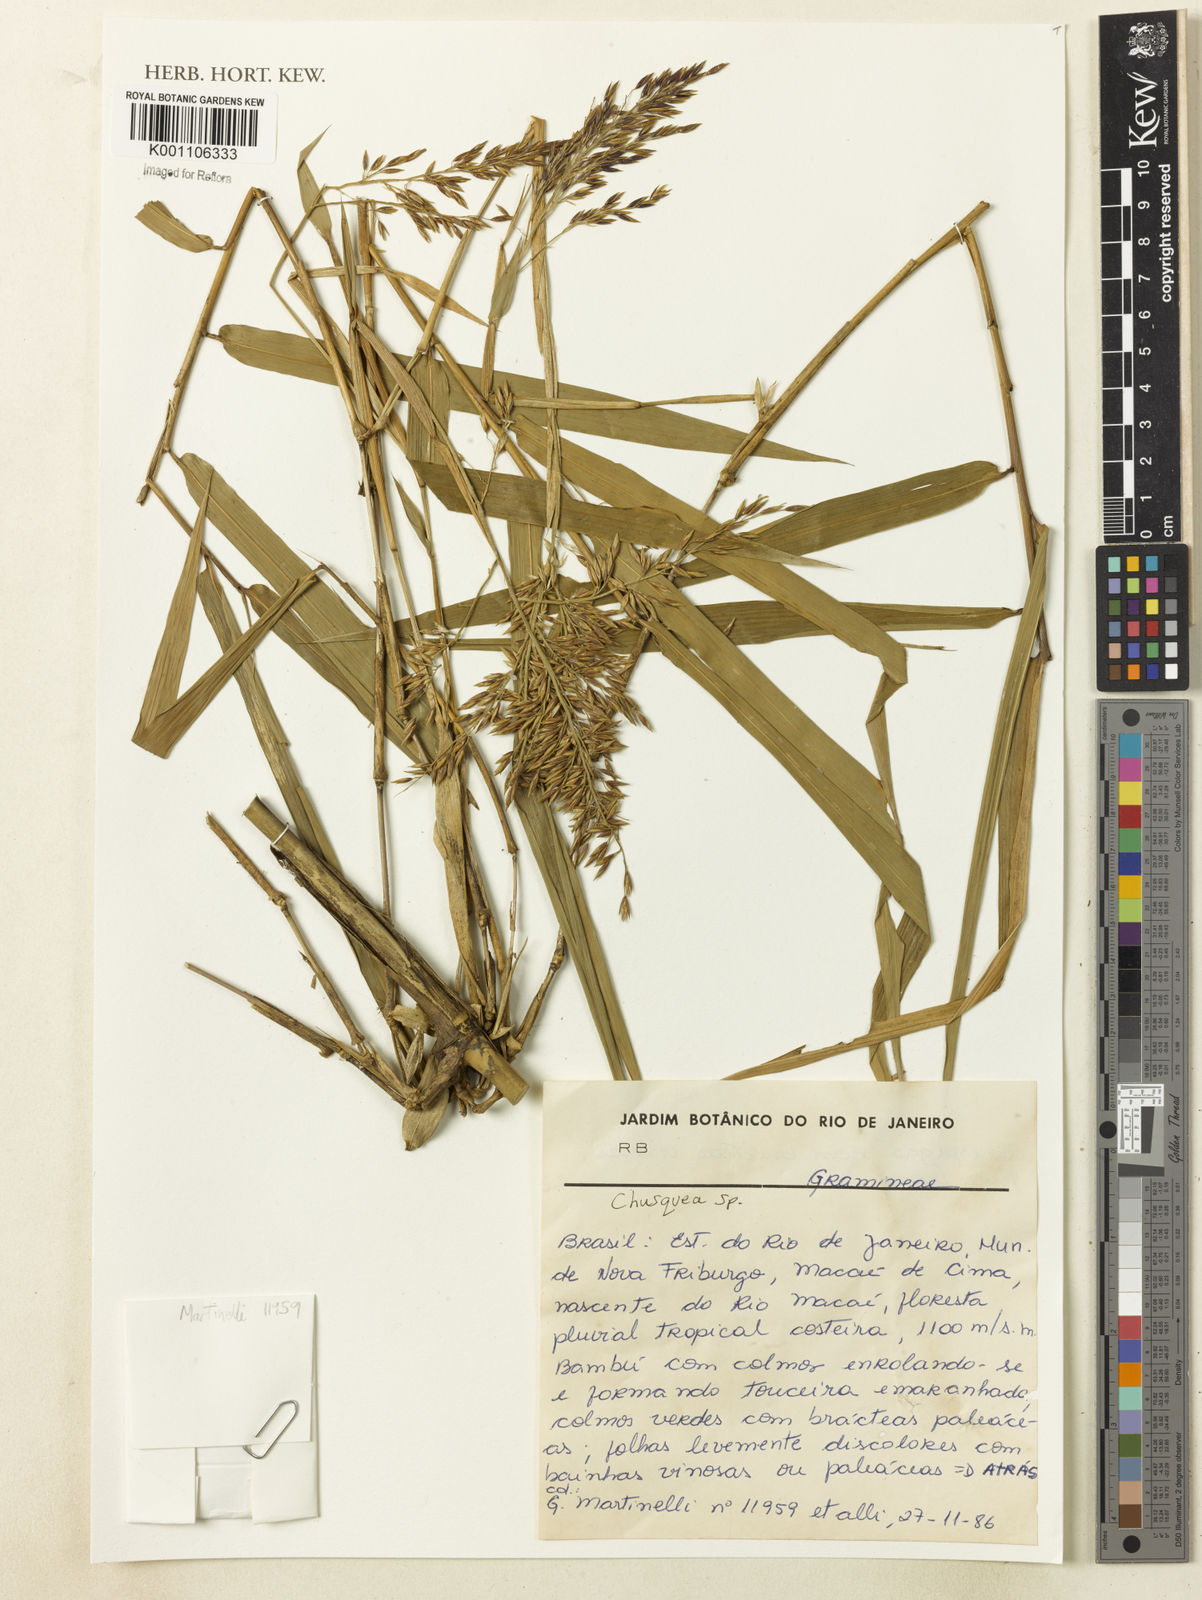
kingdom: Plantae
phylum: Tracheophyta
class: Liliopsida
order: Poales
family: Poaceae
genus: Chusquea
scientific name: Chusquea
